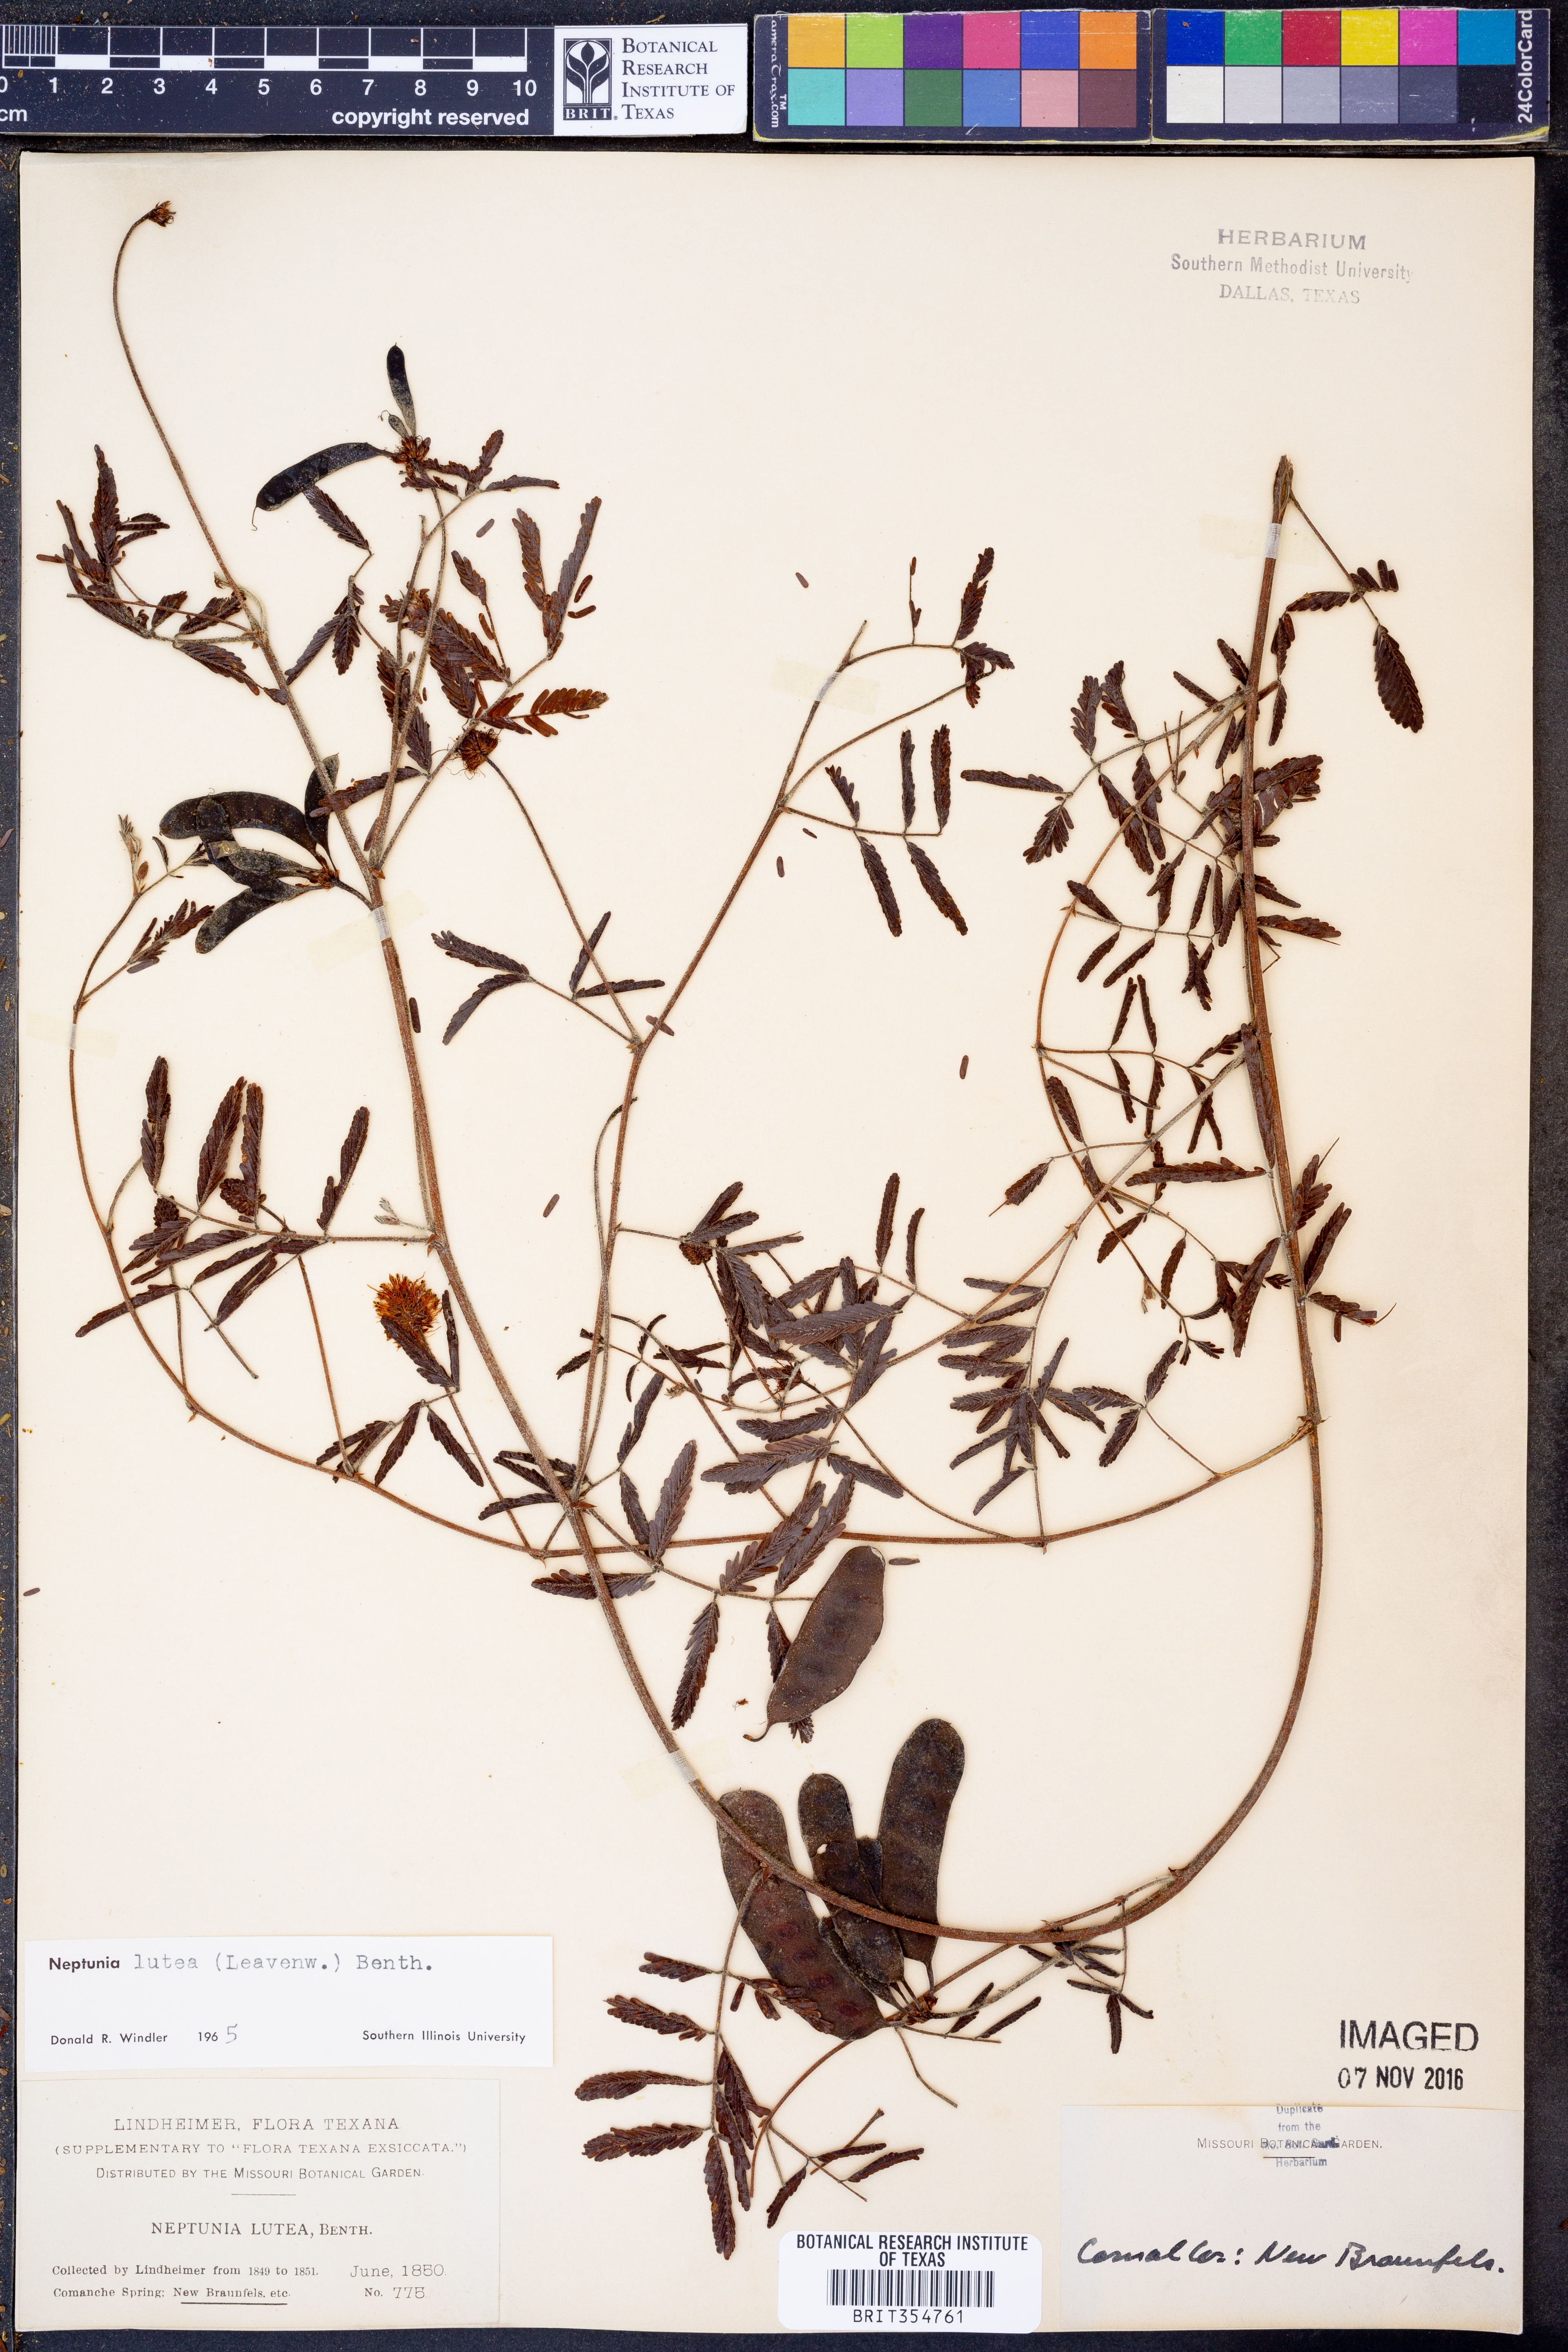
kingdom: Plantae
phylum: Tracheophyta
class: Magnoliopsida
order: Fabales
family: Fabaceae
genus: Neptunia
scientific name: Neptunia lutea
